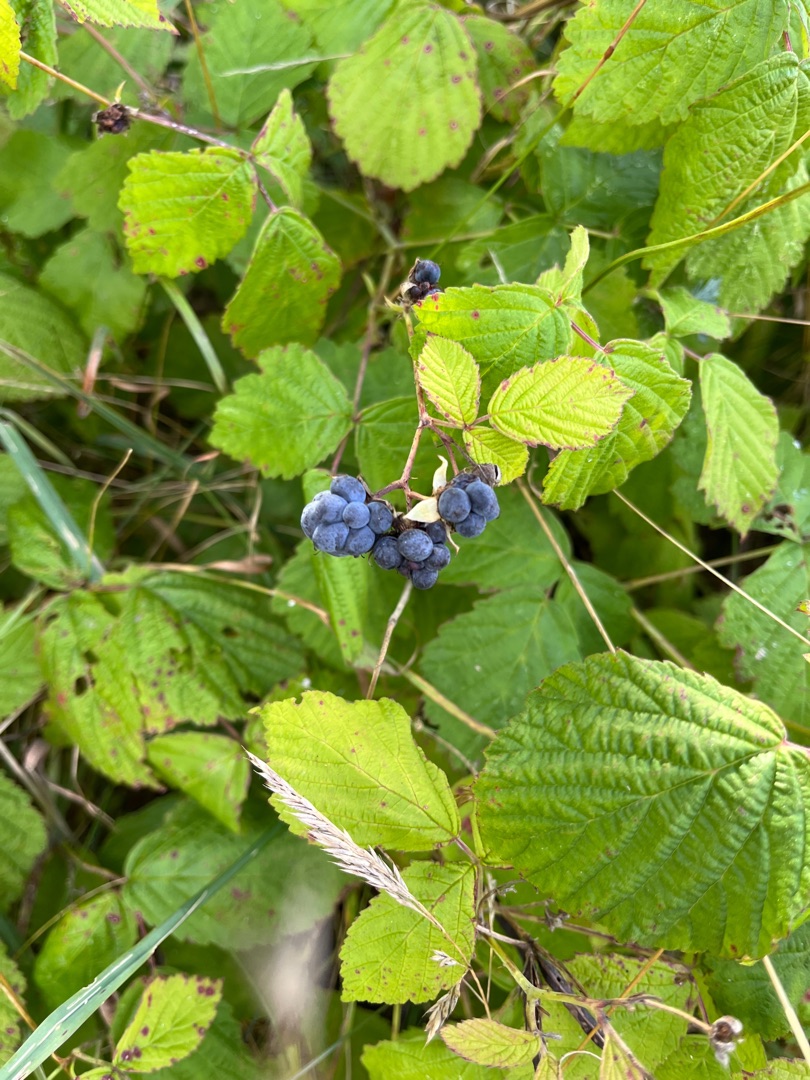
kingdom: Plantae
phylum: Tracheophyta
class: Magnoliopsida
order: Rosales
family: Rosaceae
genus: Rubus
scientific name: Rubus caesius
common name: Korbær
